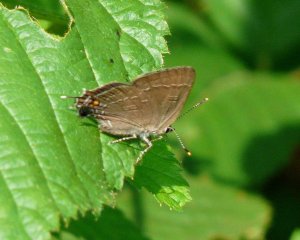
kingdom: Animalia
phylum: Arthropoda
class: Insecta
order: Lepidoptera
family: Lycaenidae
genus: Satyrium
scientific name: Satyrium calanus
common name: Banded Hairstreak
